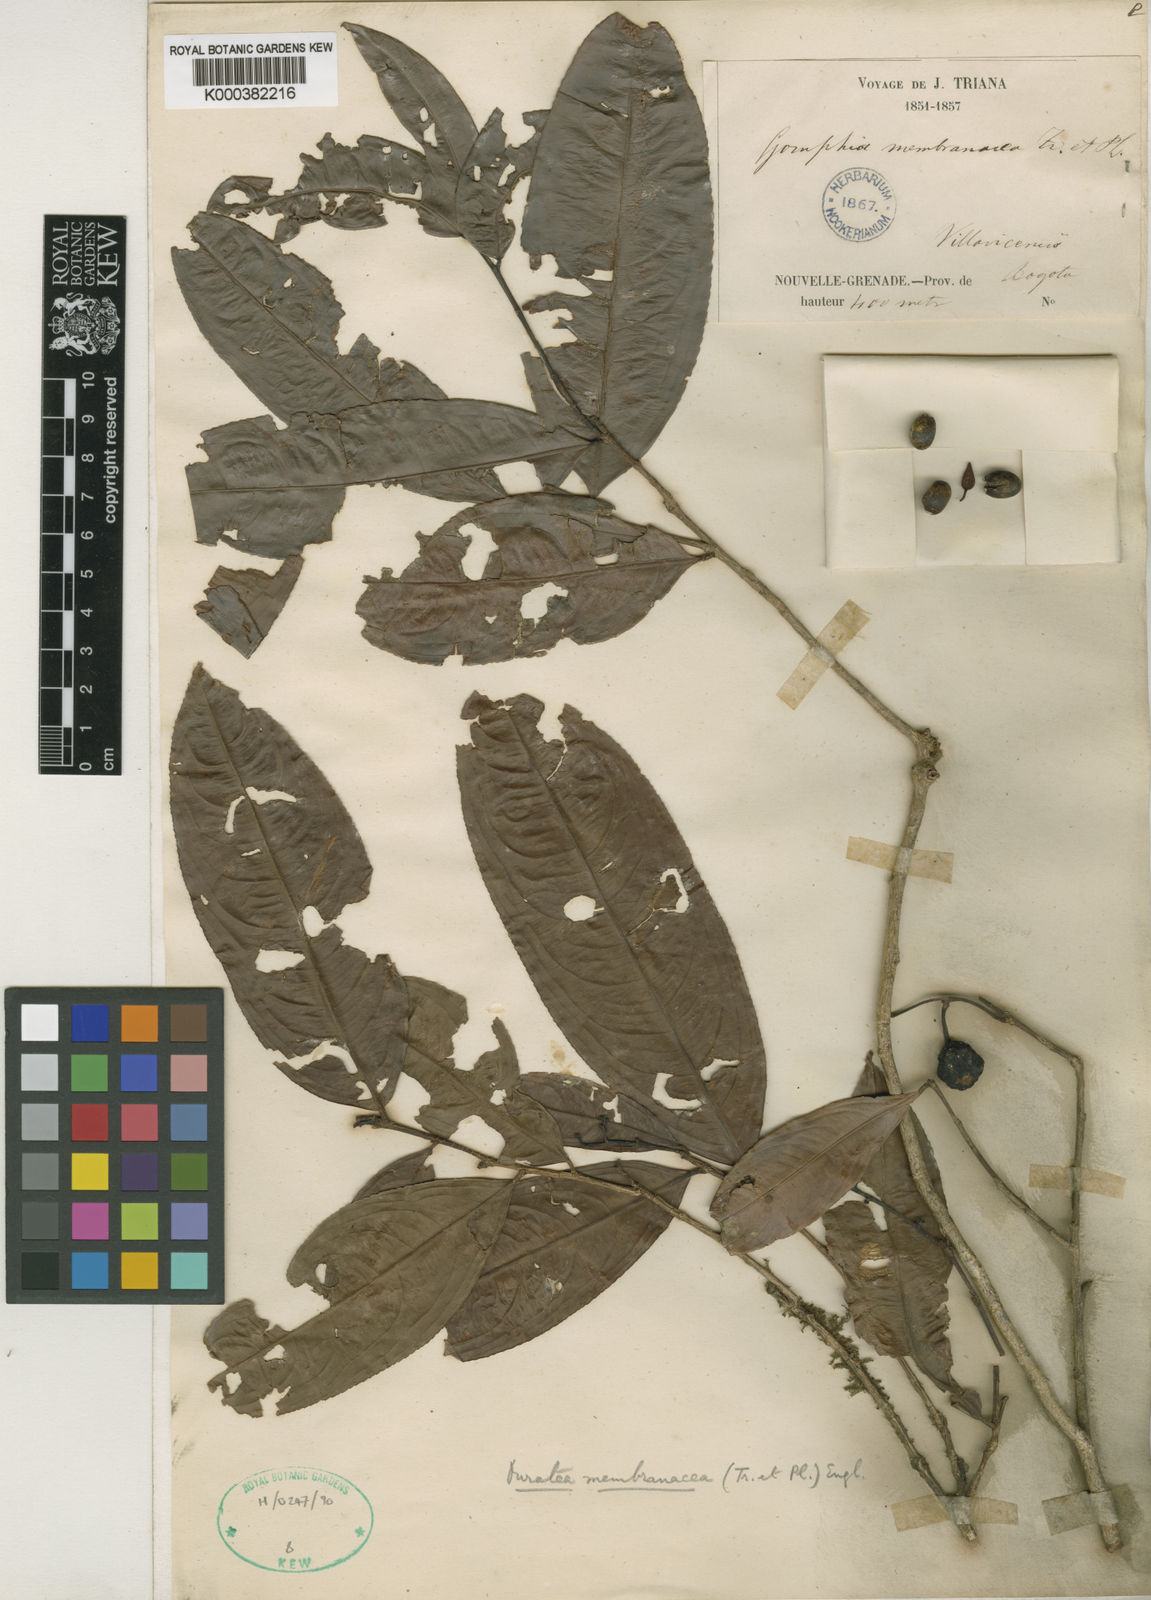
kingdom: Plantae
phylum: Tracheophyta
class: Magnoliopsida
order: Malpighiales
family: Ochnaceae
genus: Ouratea
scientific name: Ouratea membranacea
